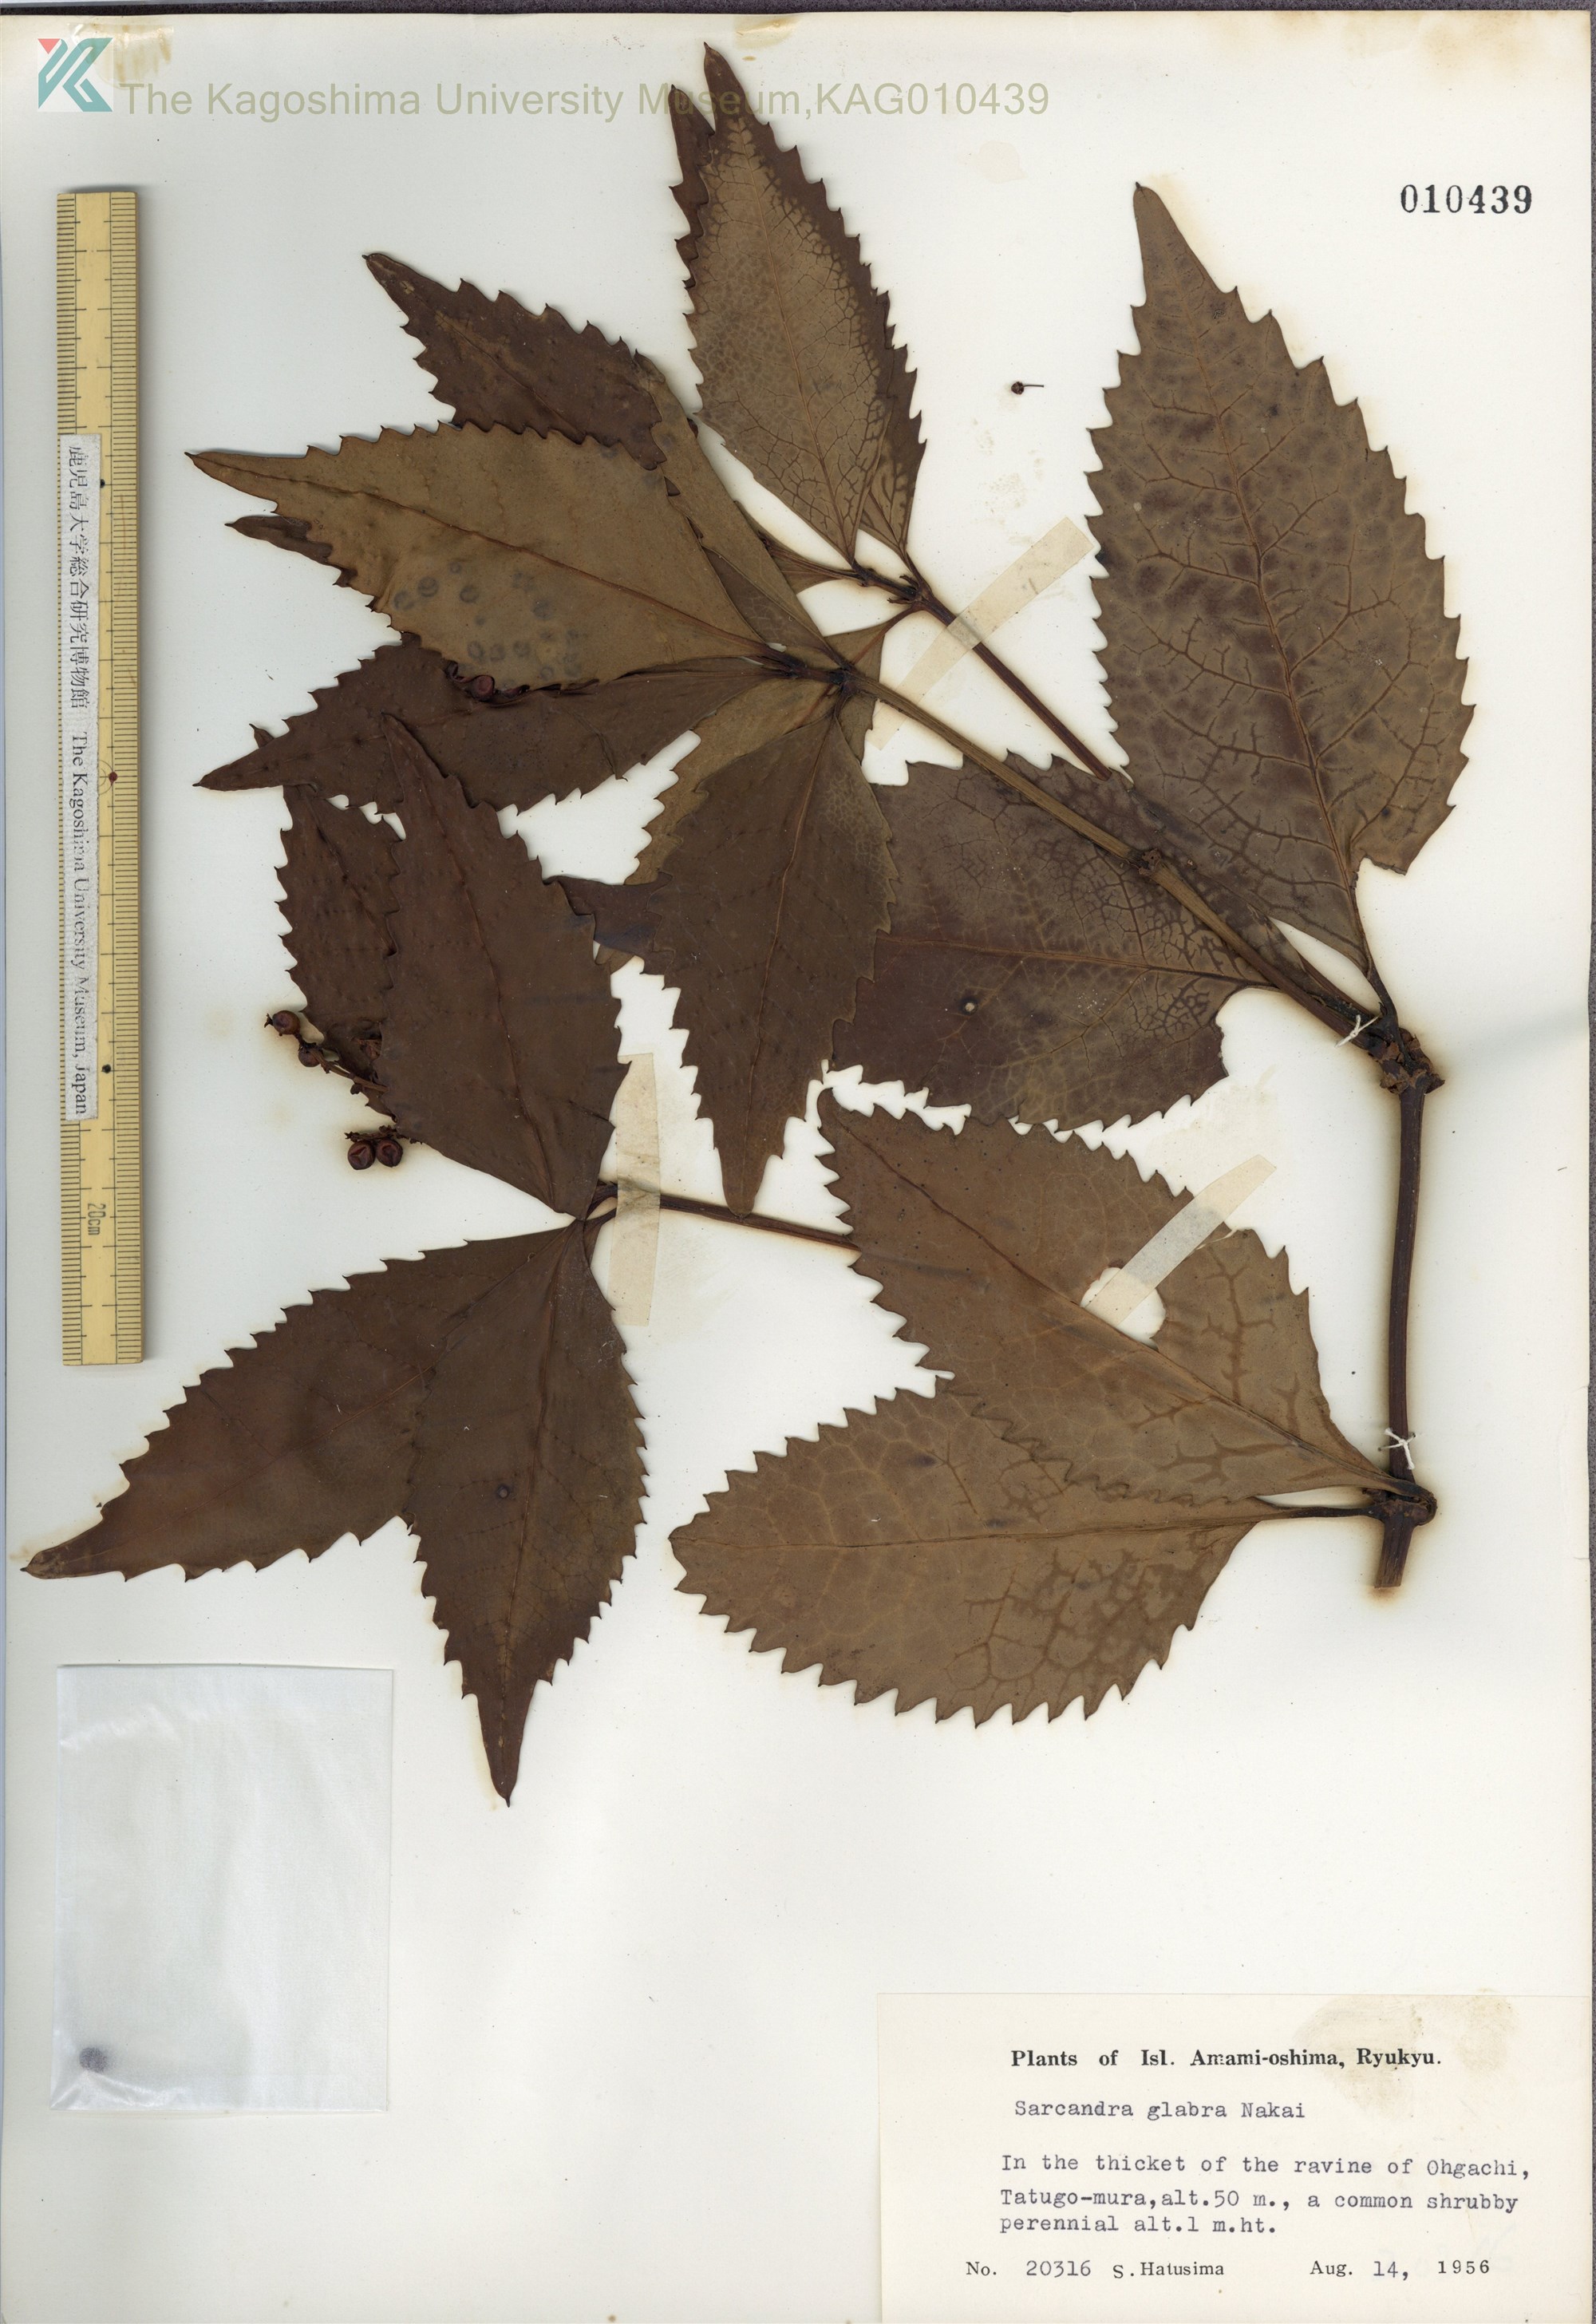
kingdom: Plantae
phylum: Tracheophyta
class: Magnoliopsida
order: Chloranthales
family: Chloranthaceae
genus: Sarcandra
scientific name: Sarcandra glabra
